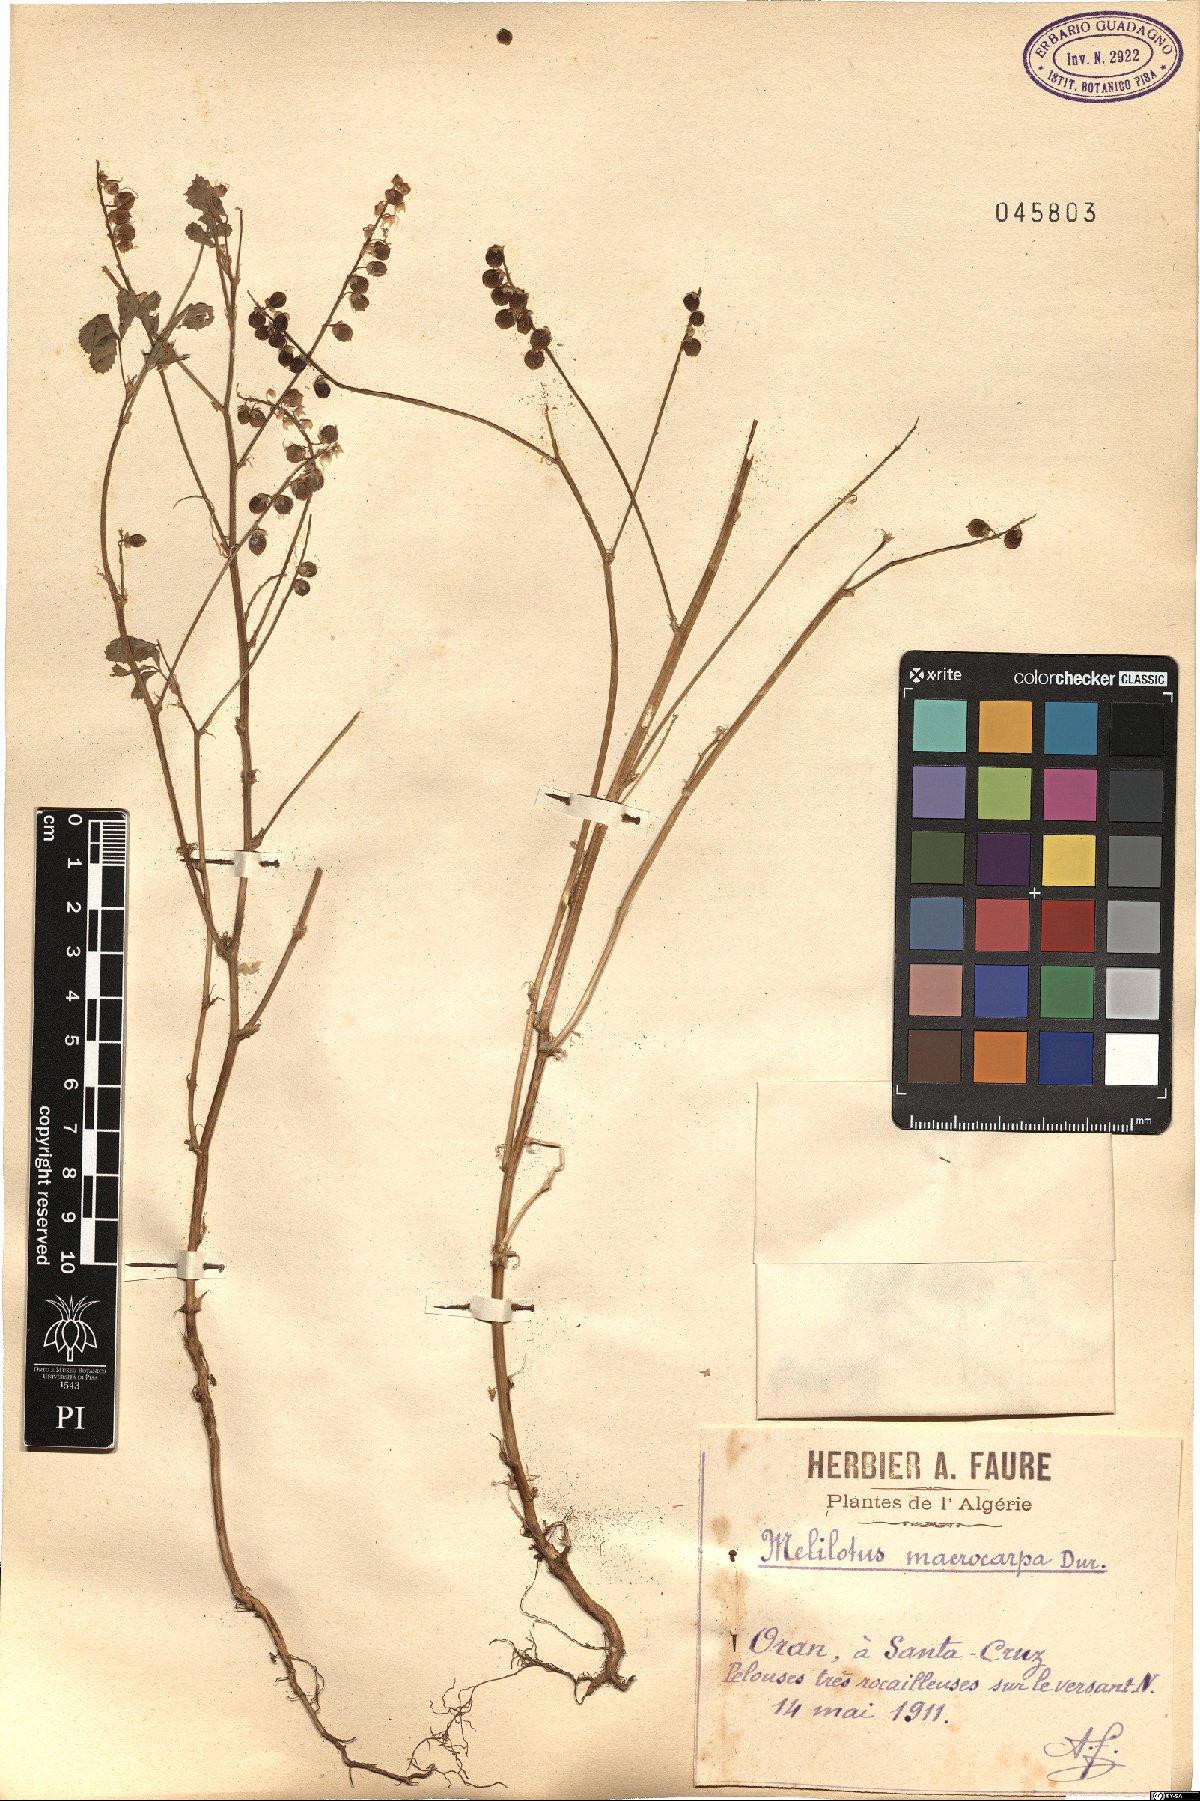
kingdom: Plantae
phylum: Tracheophyta
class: Magnoliopsida
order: Fabales
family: Fabaceae
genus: Melilotus
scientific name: Melilotus macrocarpus
